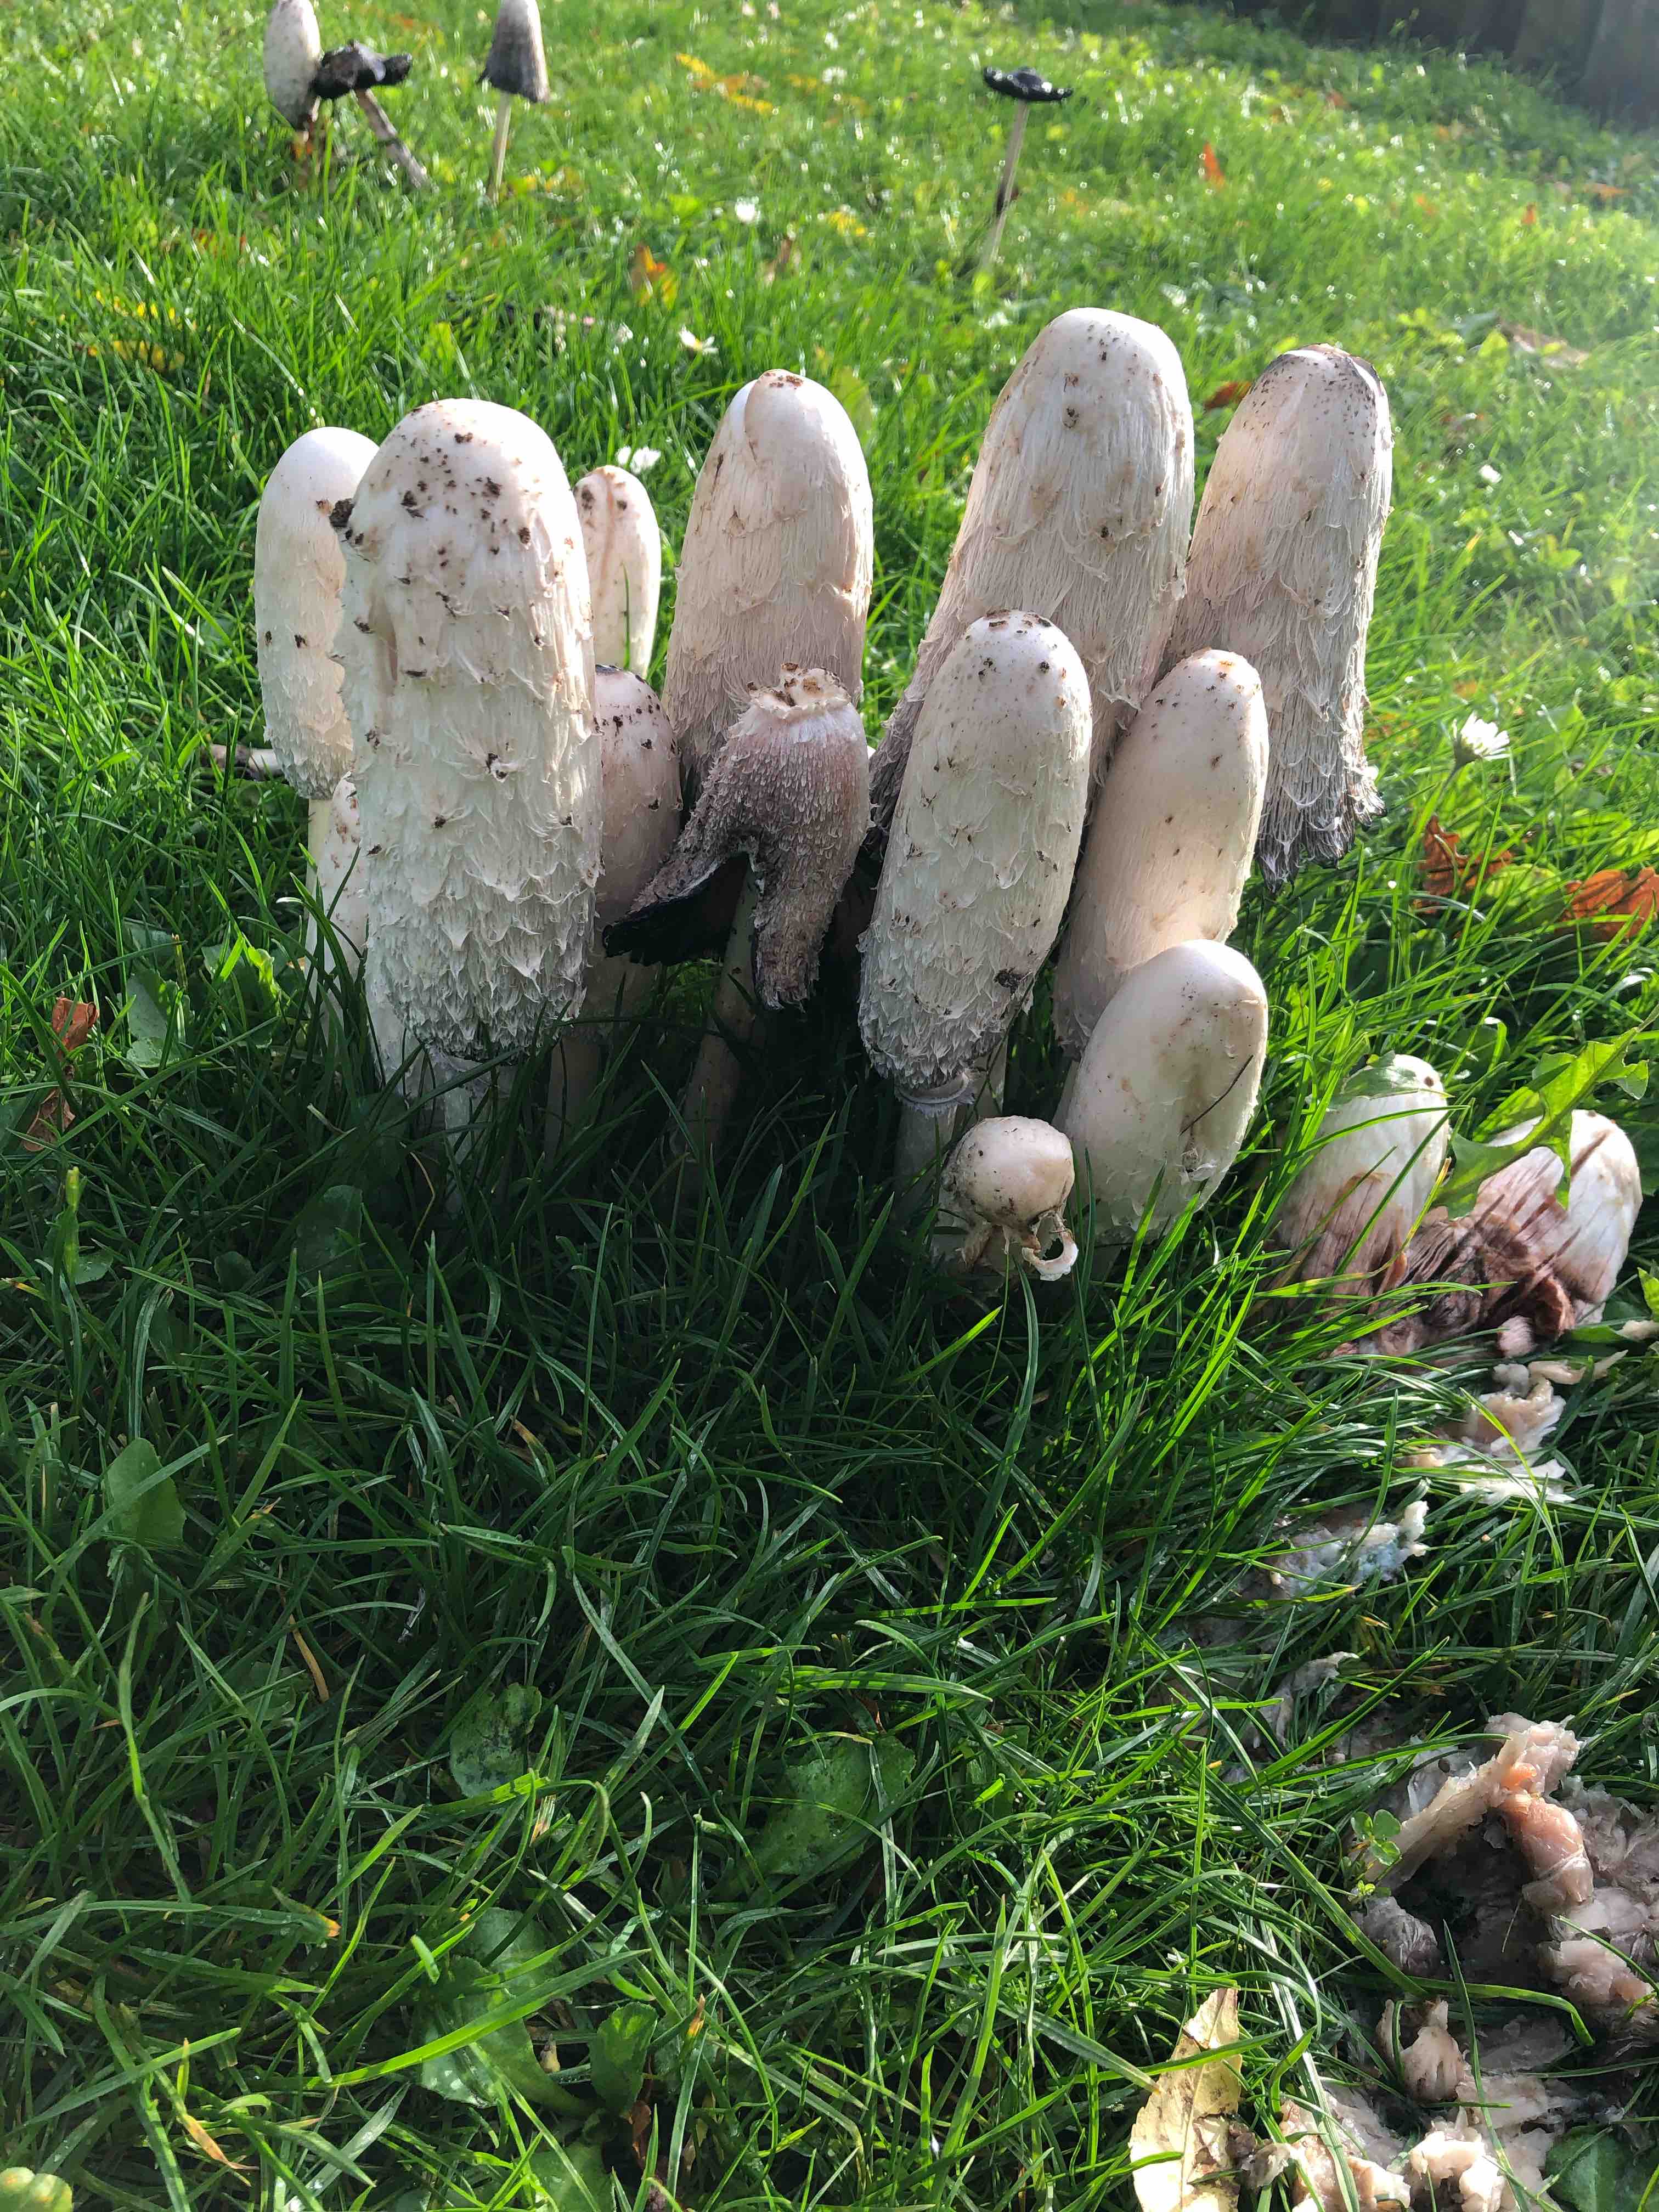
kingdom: Fungi
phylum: Basidiomycota
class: Agaricomycetes
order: Agaricales
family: Agaricaceae
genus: Coprinus
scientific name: Coprinus comatus
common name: stor parykhat
